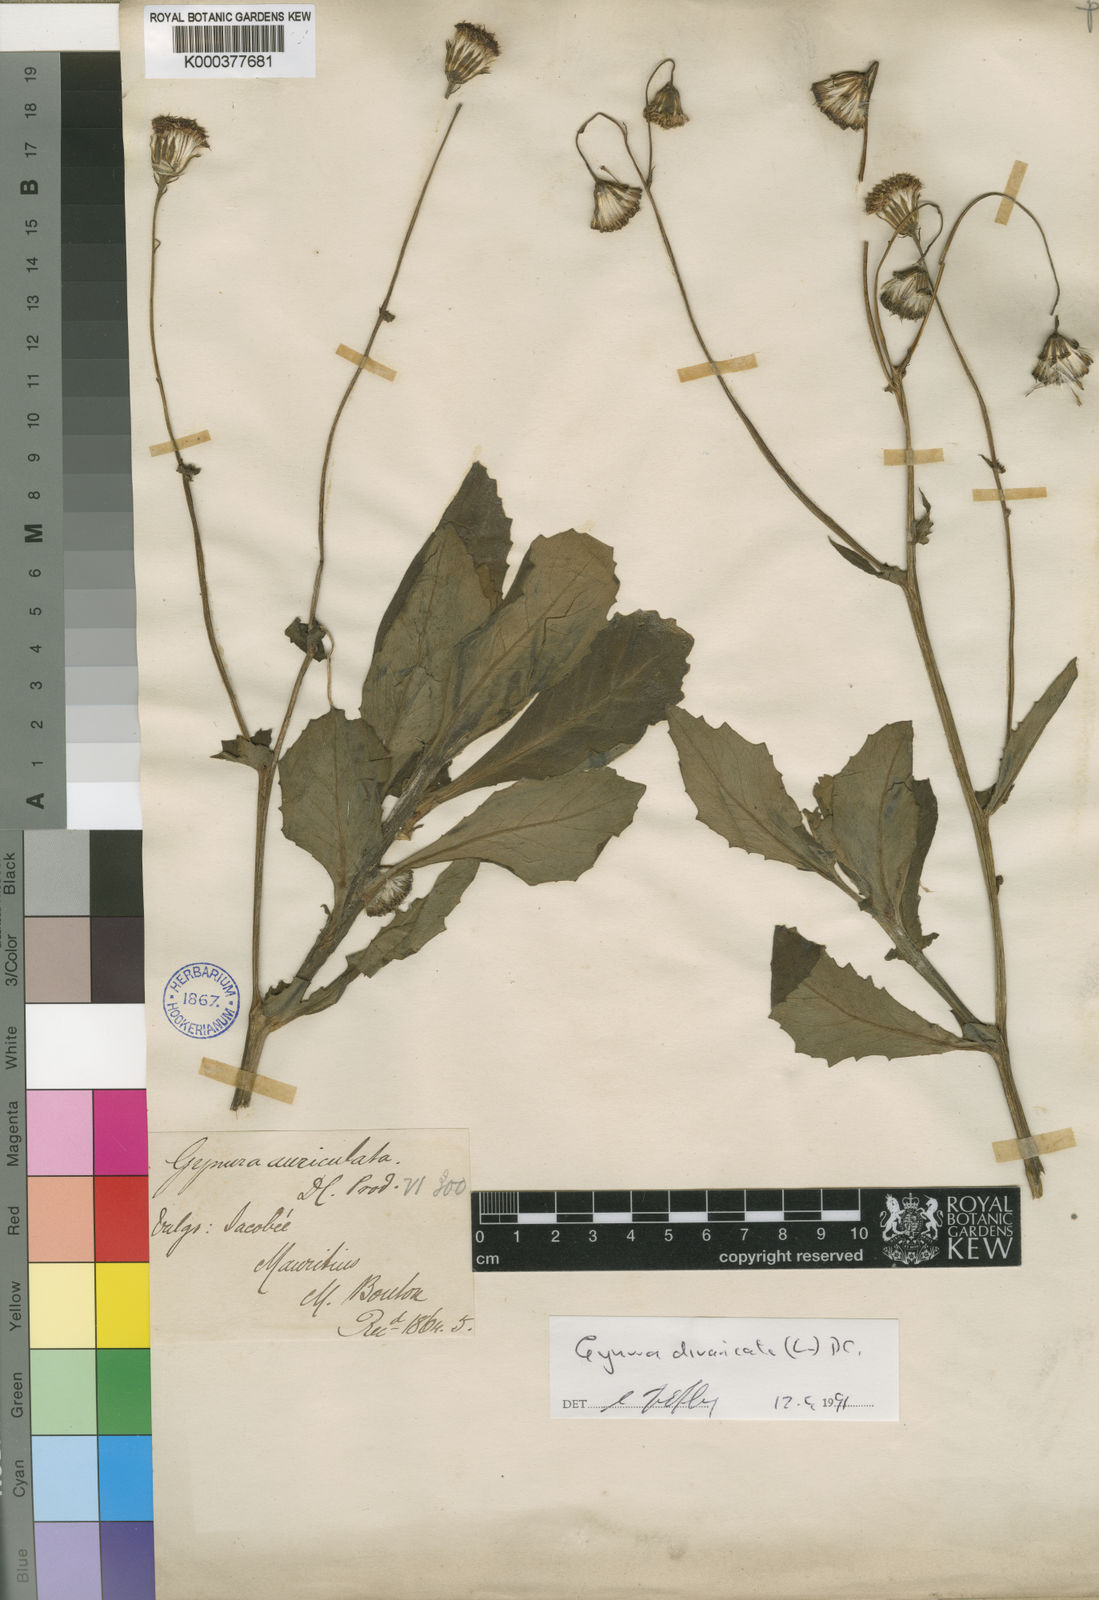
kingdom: Plantae
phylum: Tracheophyta
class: Magnoliopsida
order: Asterales
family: Asteraceae
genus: Gynura
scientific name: Gynura
